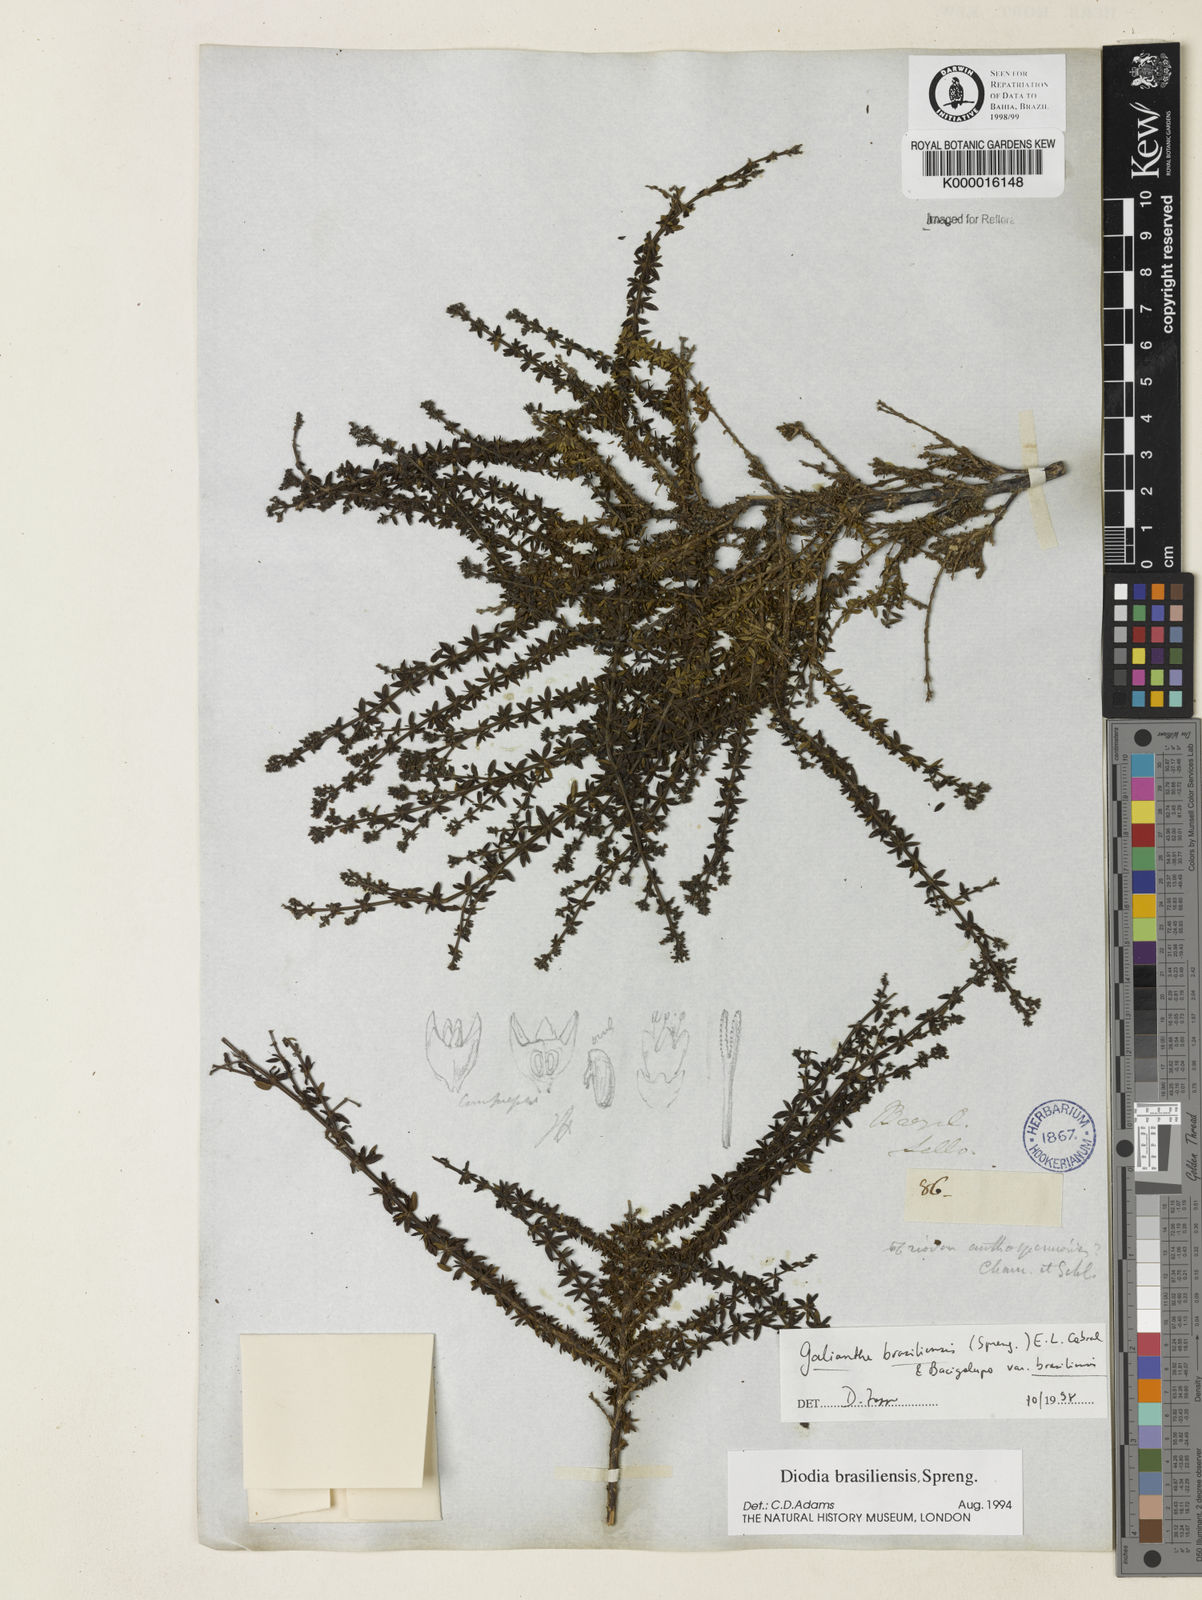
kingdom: Plantae
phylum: Tracheophyta
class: Magnoliopsida
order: Gentianales
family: Rubiaceae
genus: Galianthe
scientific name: Galianthe brasiliensis
